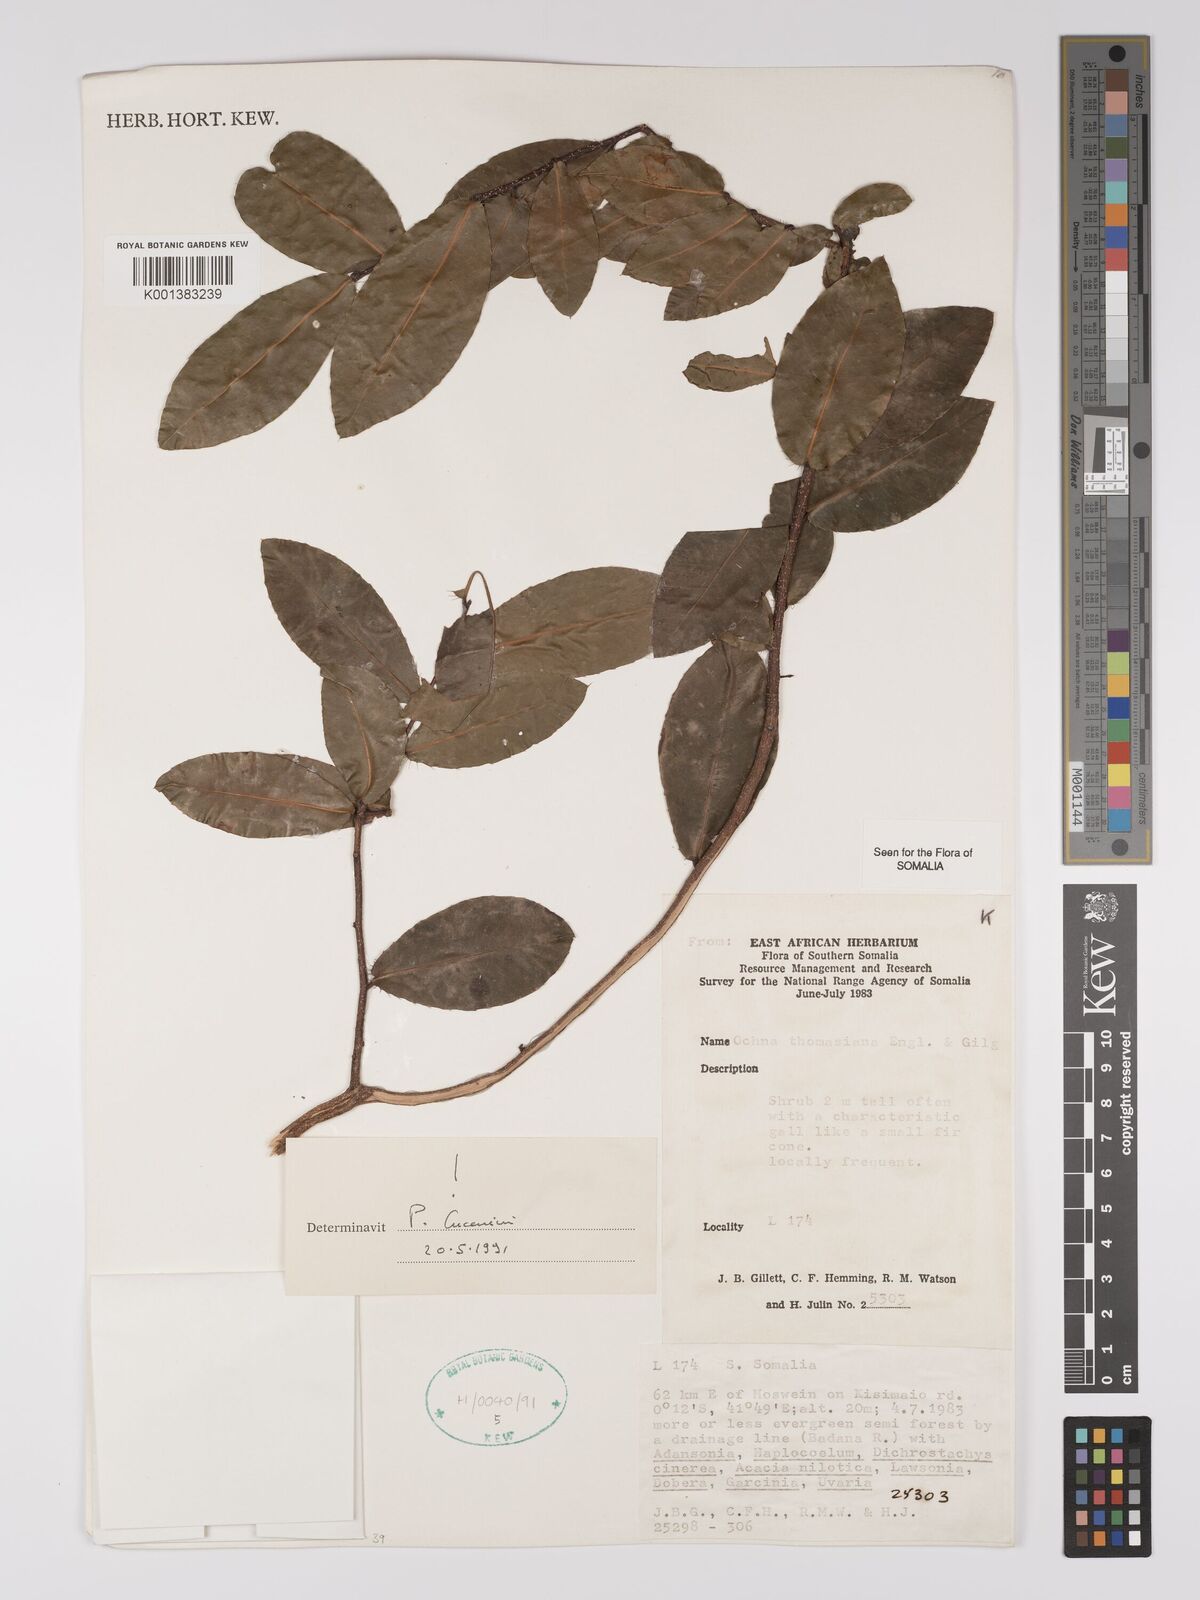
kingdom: Plantae
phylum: Tracheophyta
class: Magnoliopsida
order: Malpighiales
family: Ochnaceae
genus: Ochna
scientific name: Ochna thomasiana
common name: Thomas' bird's-eye bush
